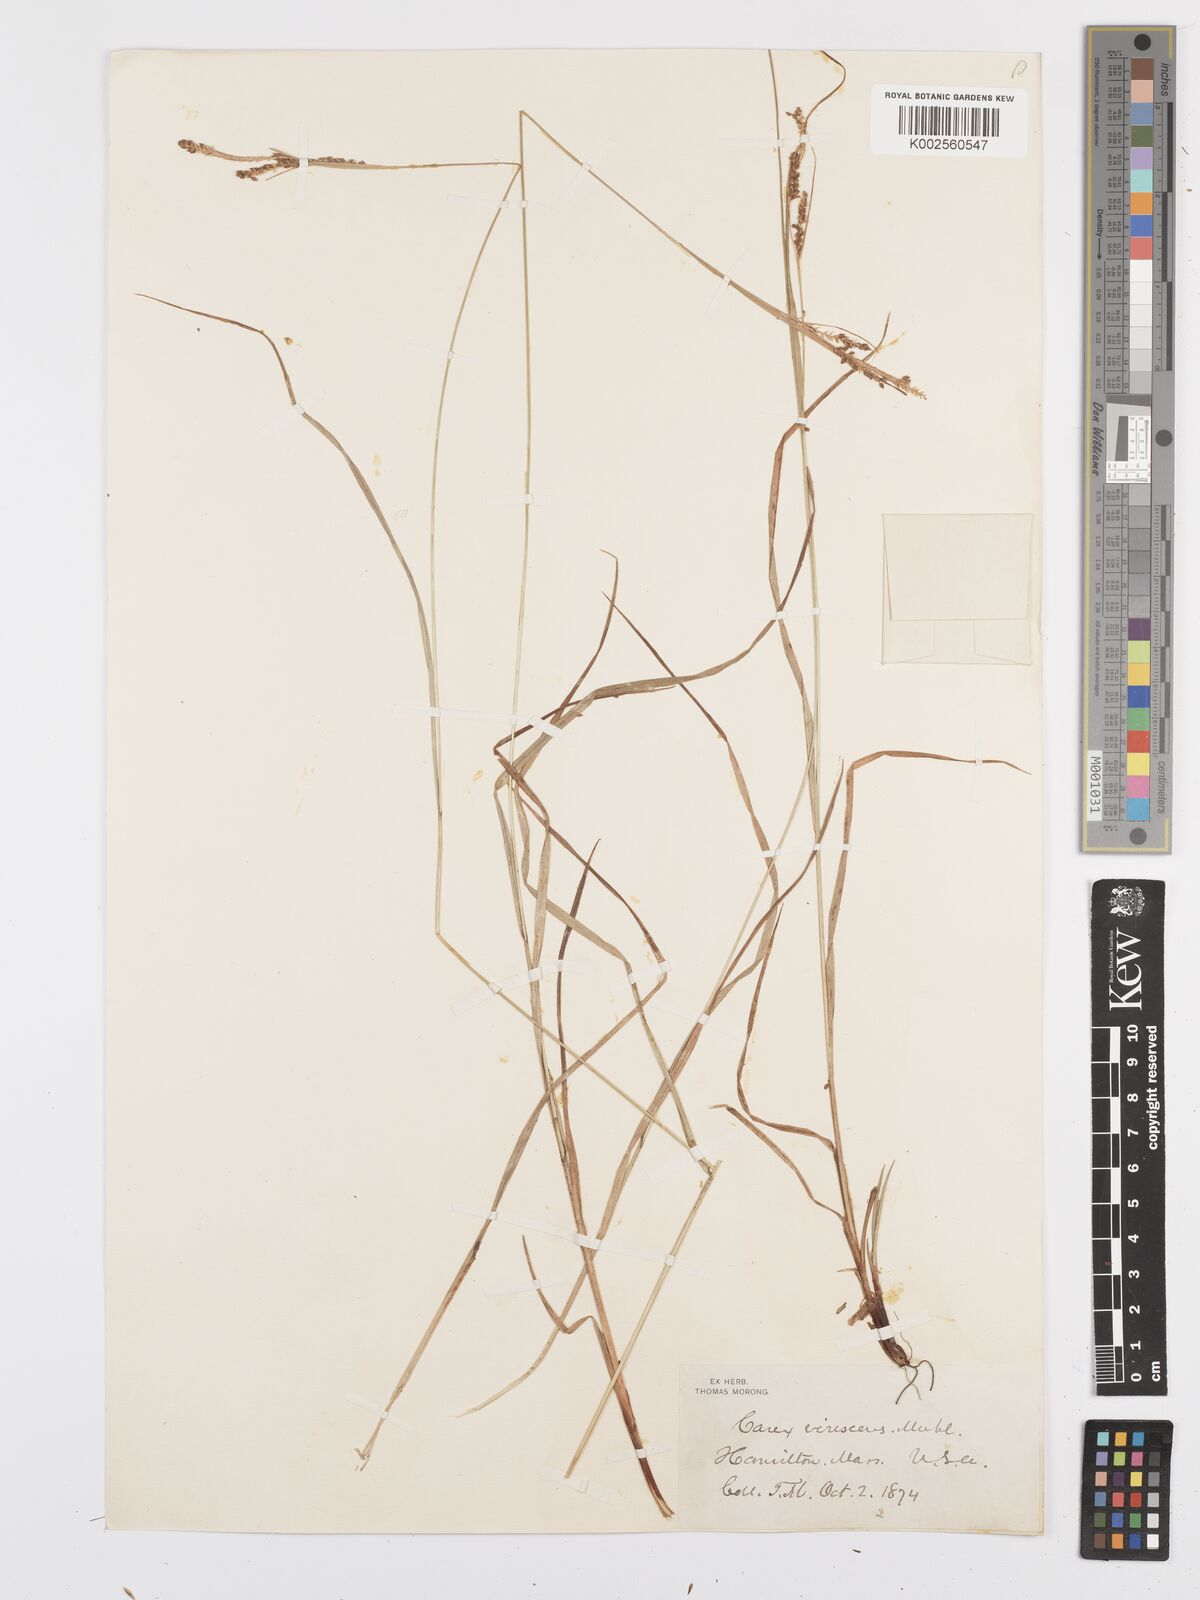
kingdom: Plantae
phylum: Tracheophyta
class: Liliopsida
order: Poales
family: Cyperaceae
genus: Carex
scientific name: Carex virescens
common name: Ribbed sedge
